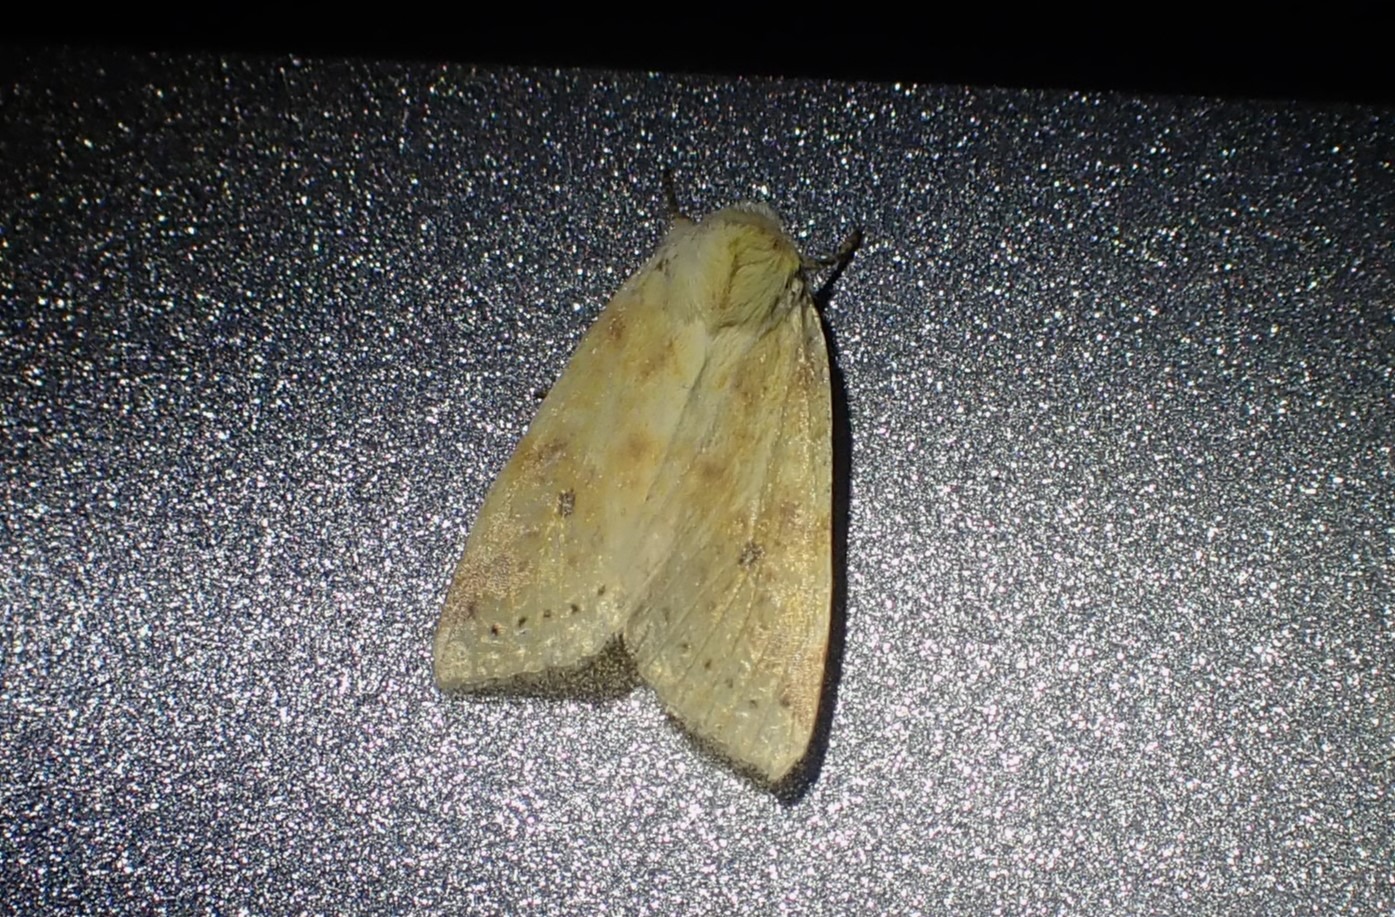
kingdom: Animalia
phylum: Arthropoda
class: Insecta
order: Lepidoptera
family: Noctuidae
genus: Xanthia
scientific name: Xanthia Cirrhia icteritia
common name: Brombær-guldugle
